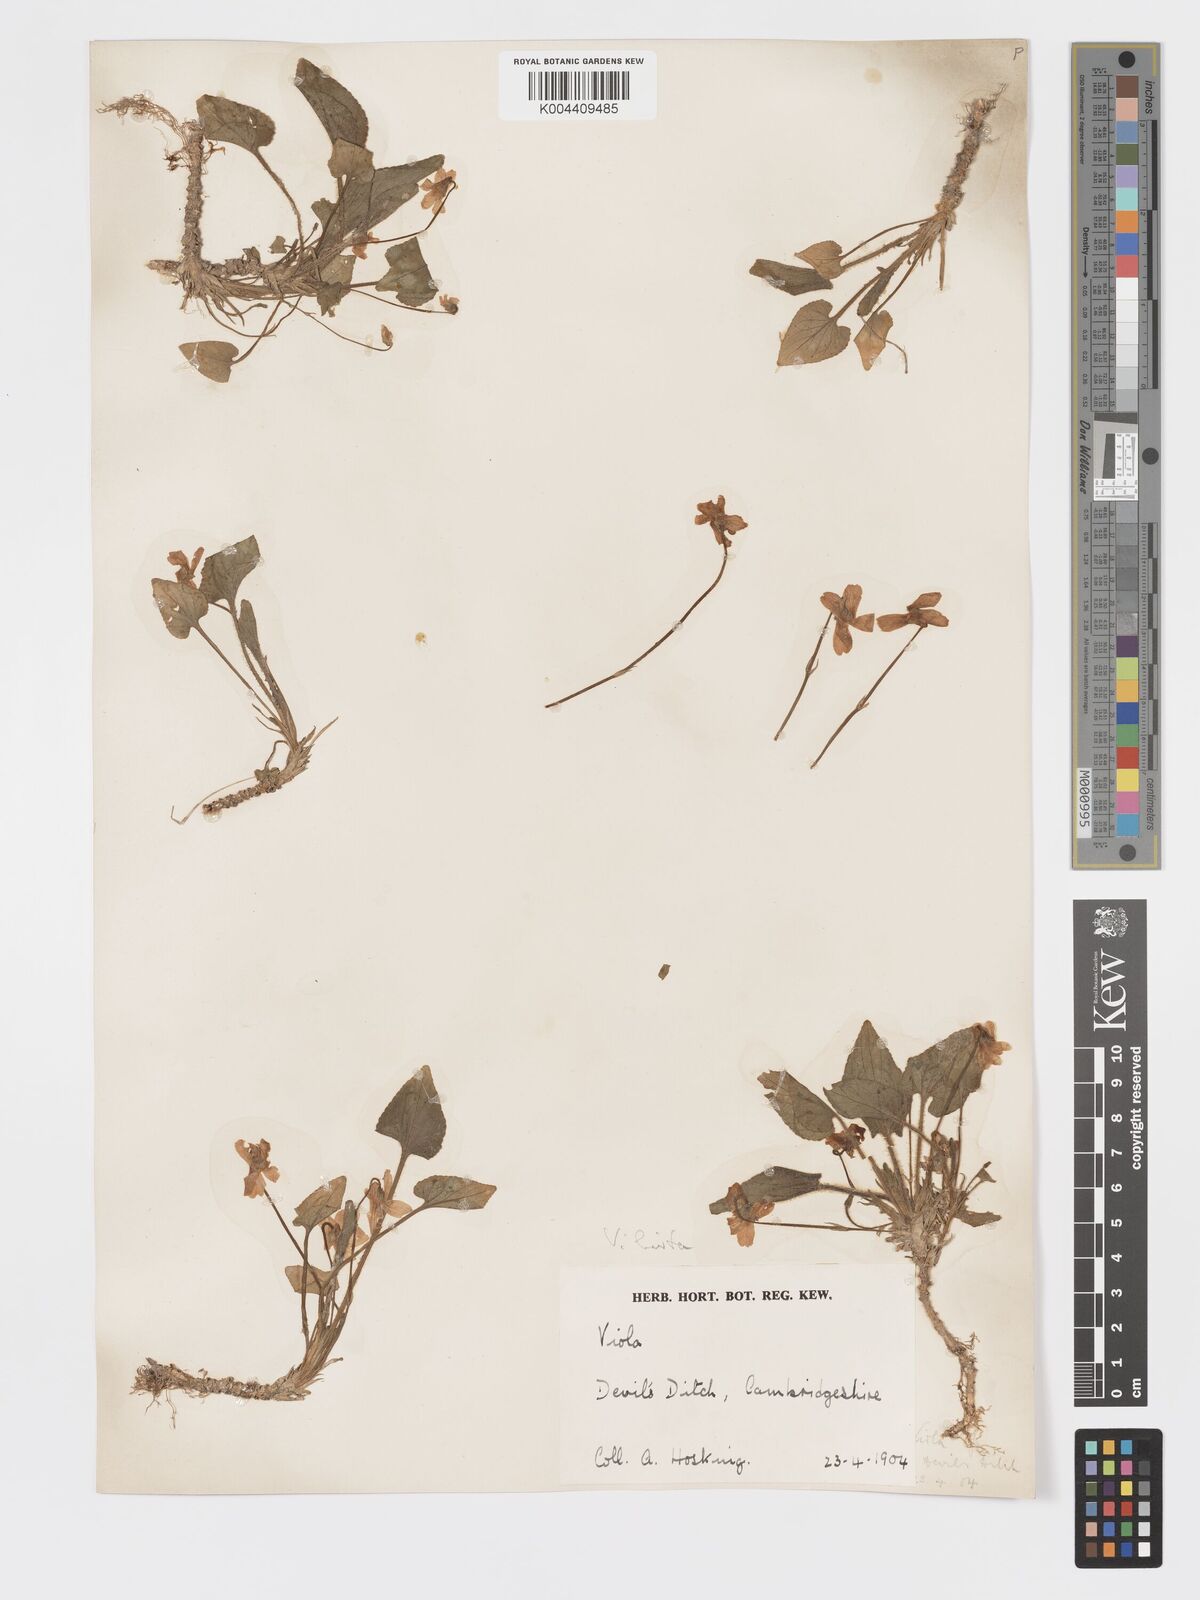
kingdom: Plantae
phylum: Tracheophyta
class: Magnoliopsida
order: Malpighiales
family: Violaceae
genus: Viola
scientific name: Viola
